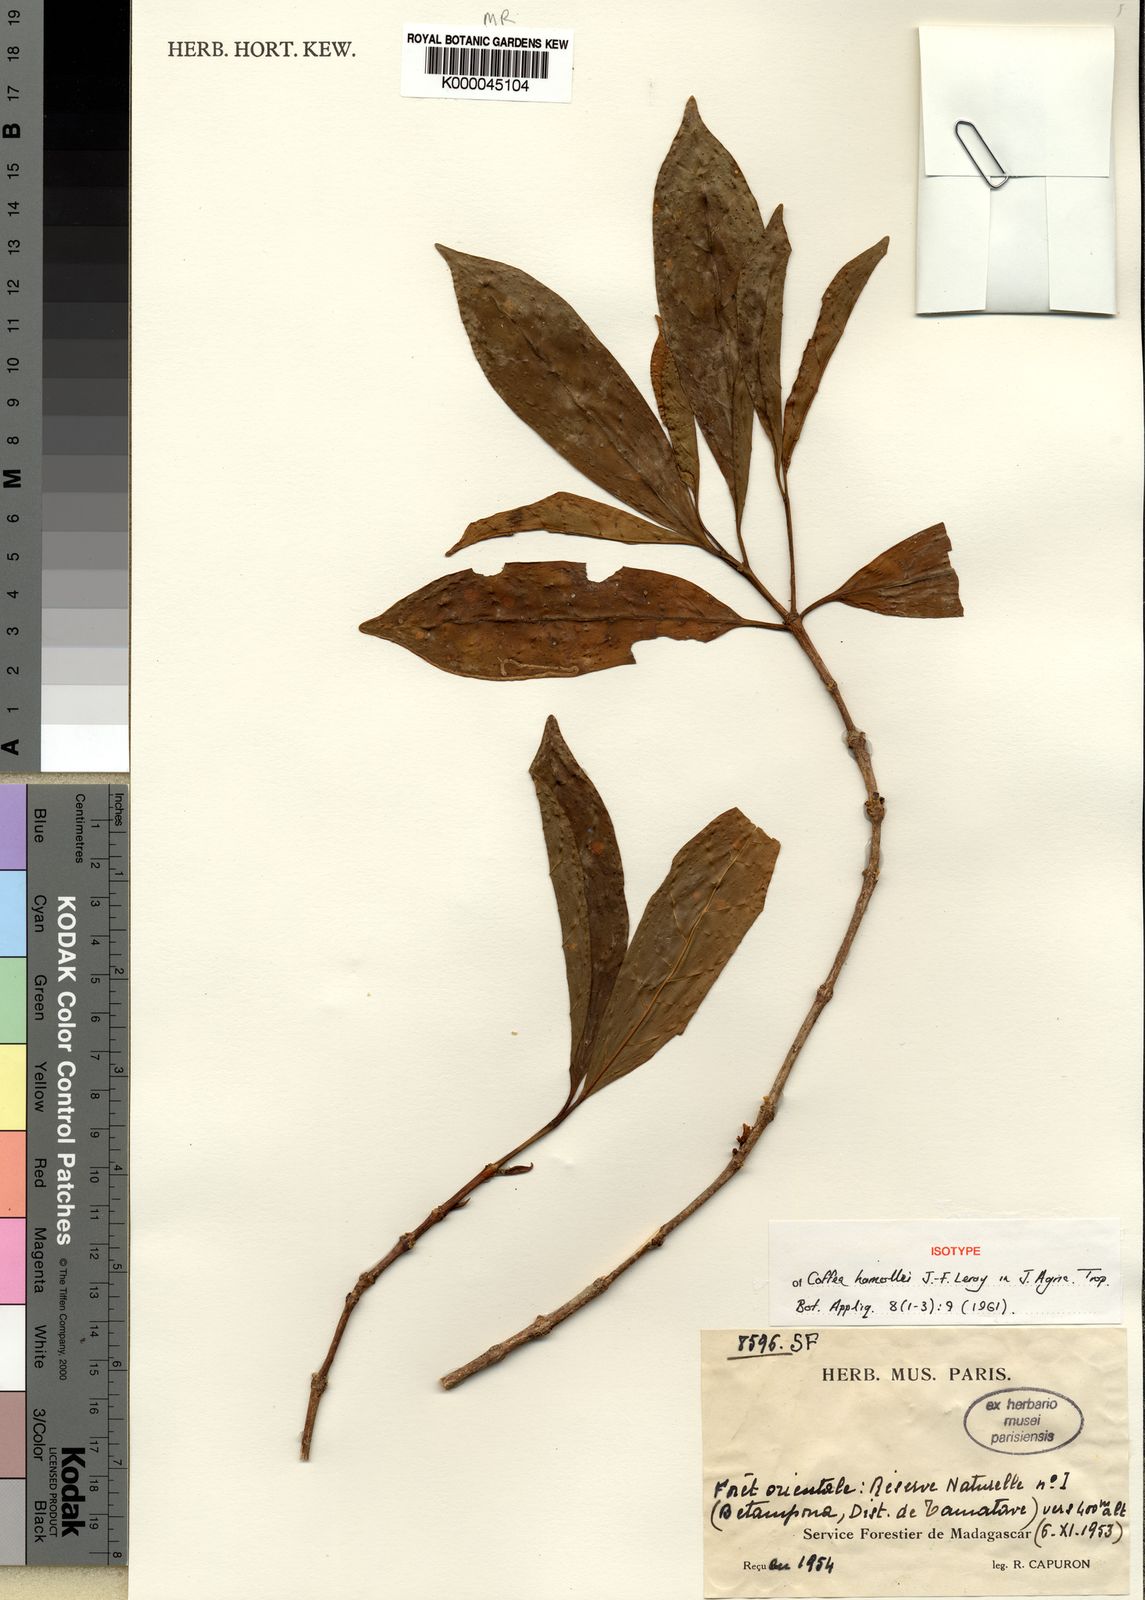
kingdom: Plantae
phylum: Tracheophyta
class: Magnoliopsida
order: Gentianales
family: Rubiaceae
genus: Coffea
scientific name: Coffea homollei
